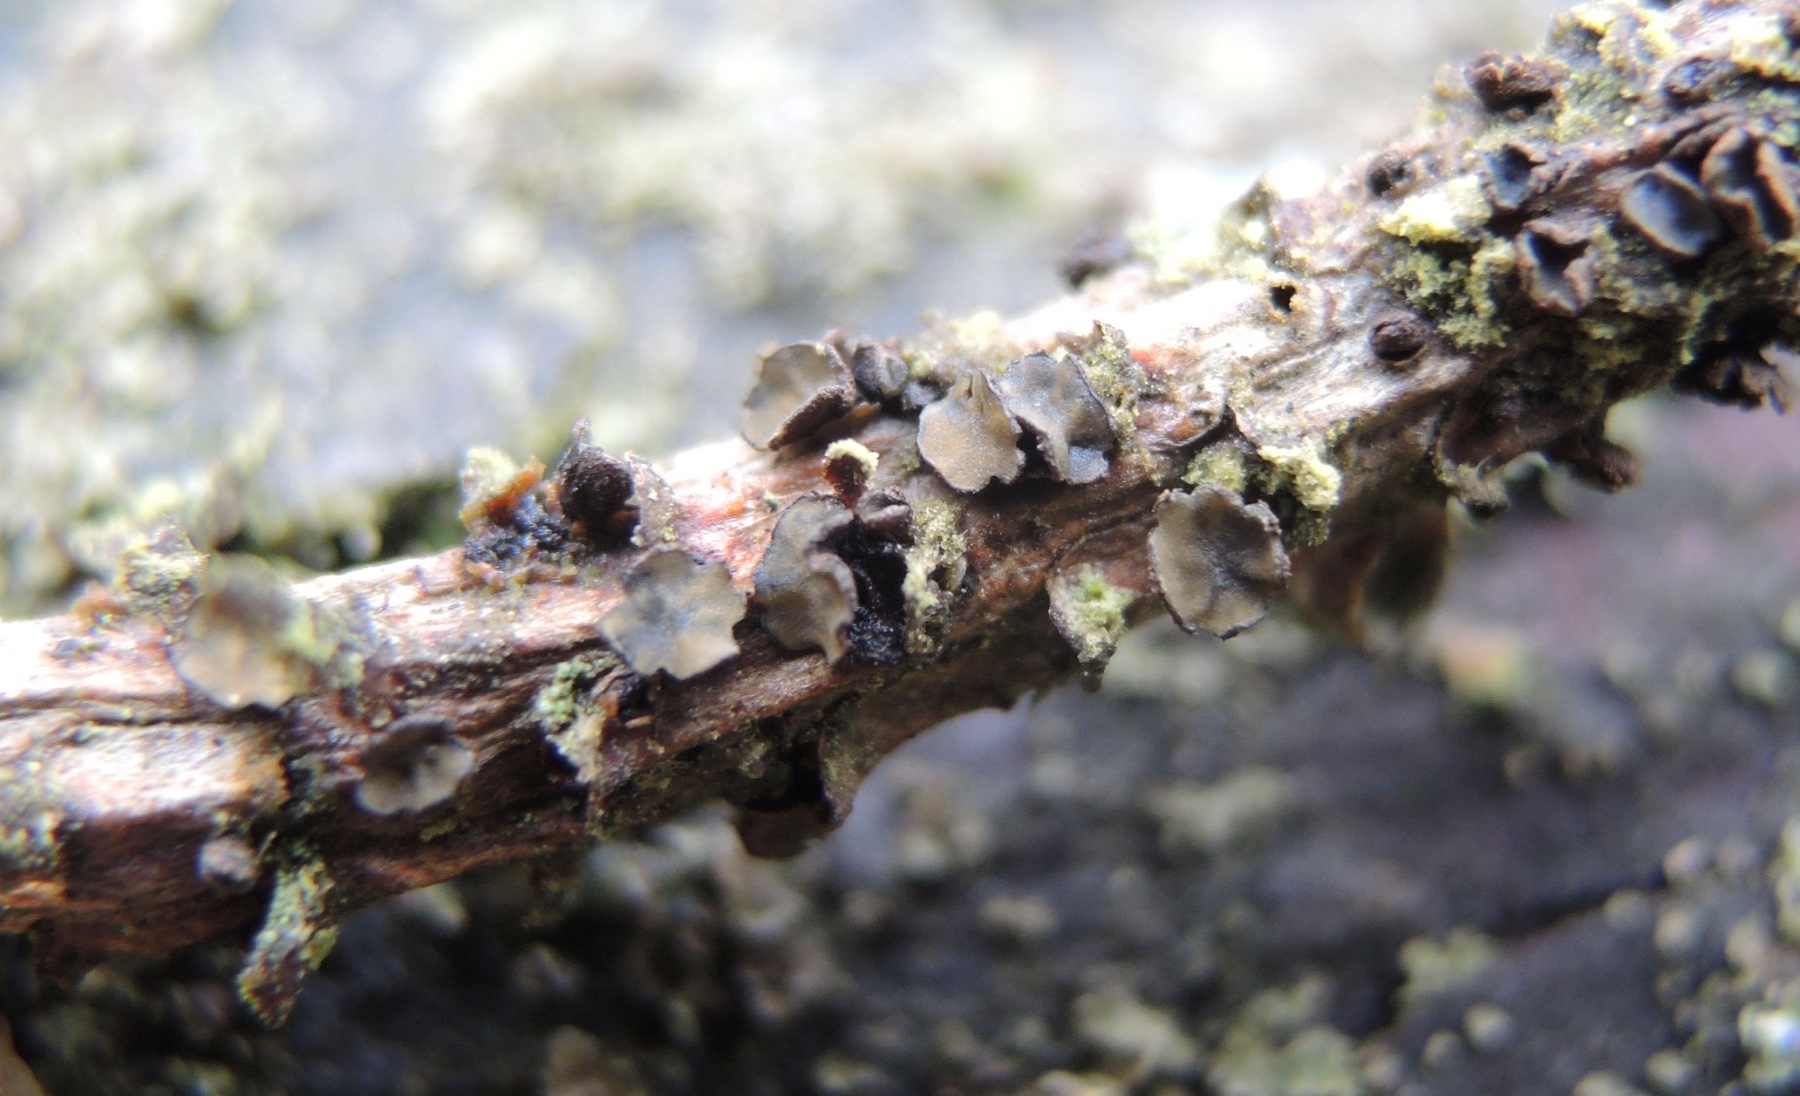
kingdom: Fungi
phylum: Ascomycota
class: Leotiomycetes
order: Helotiales
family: Cenangiaceae
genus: Cenangium
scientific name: Cenangium ferruginosum
